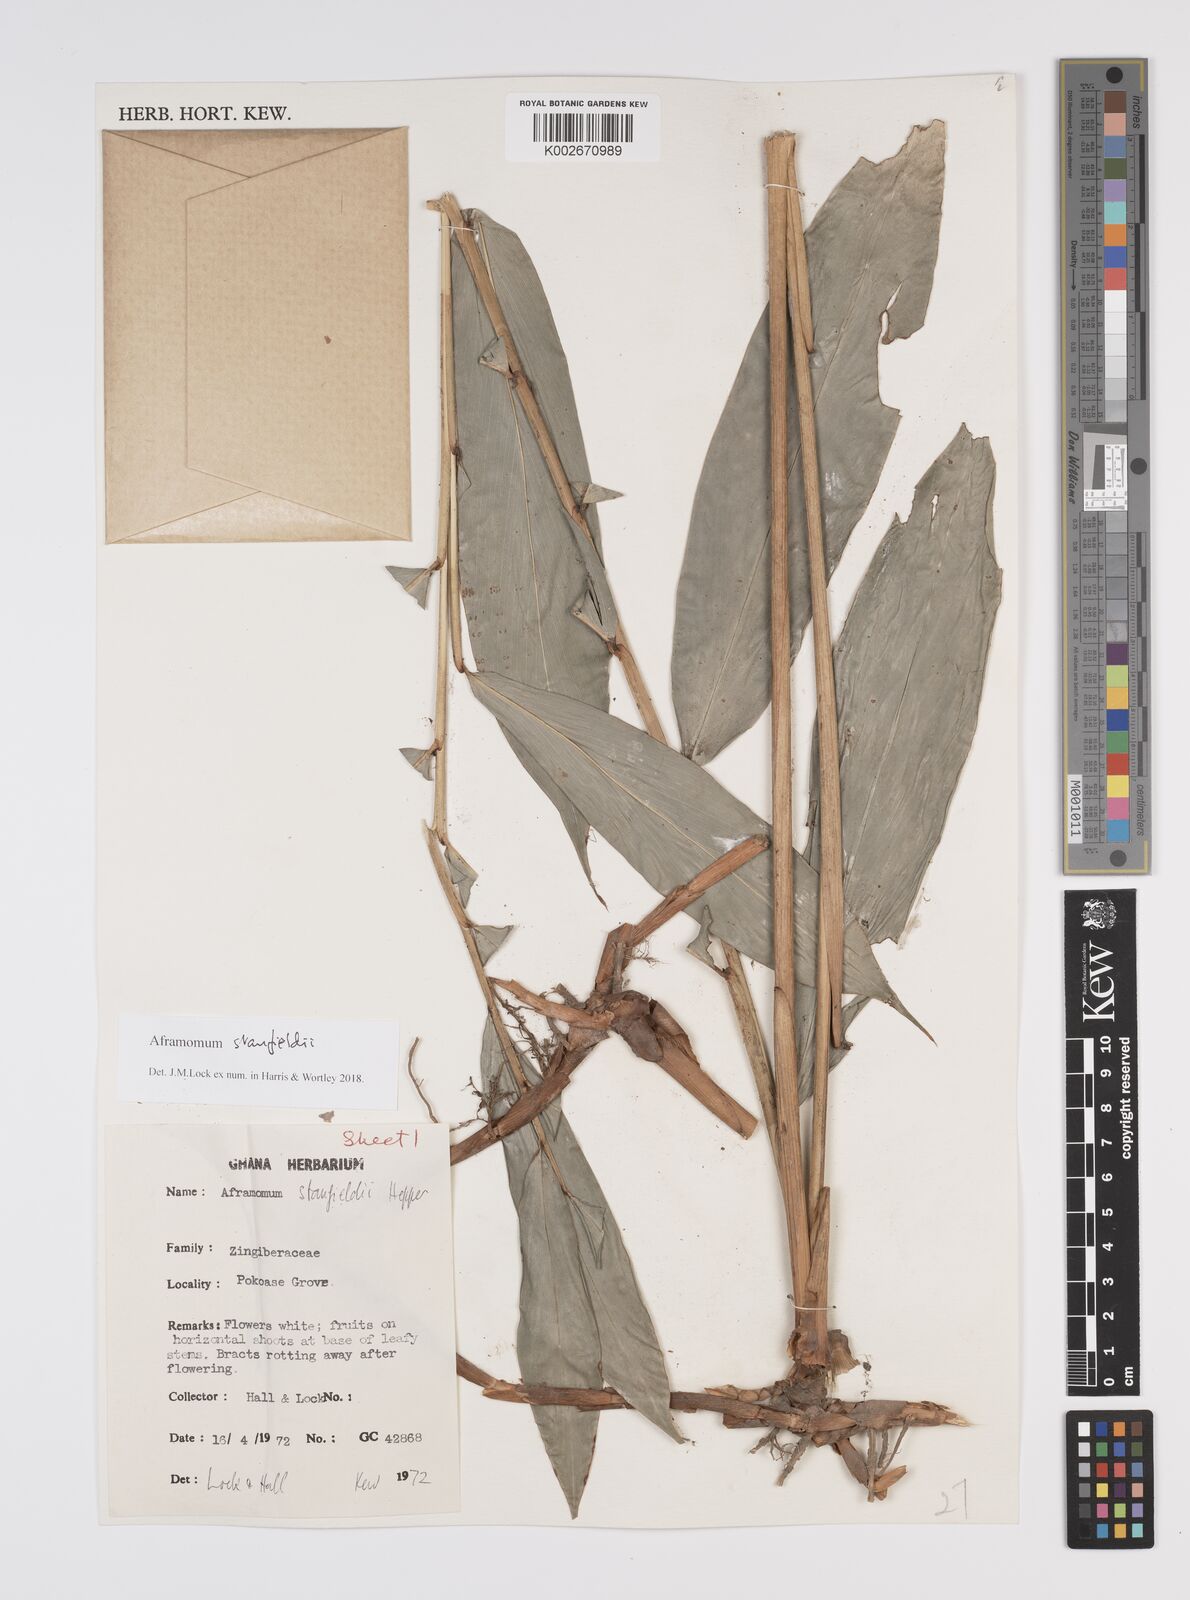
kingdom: Plantae
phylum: Tracheophyta
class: Liliopsida
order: Zingiberales
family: Zingiberaceae
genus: Aframomum
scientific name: Aframomum stanfieldii
